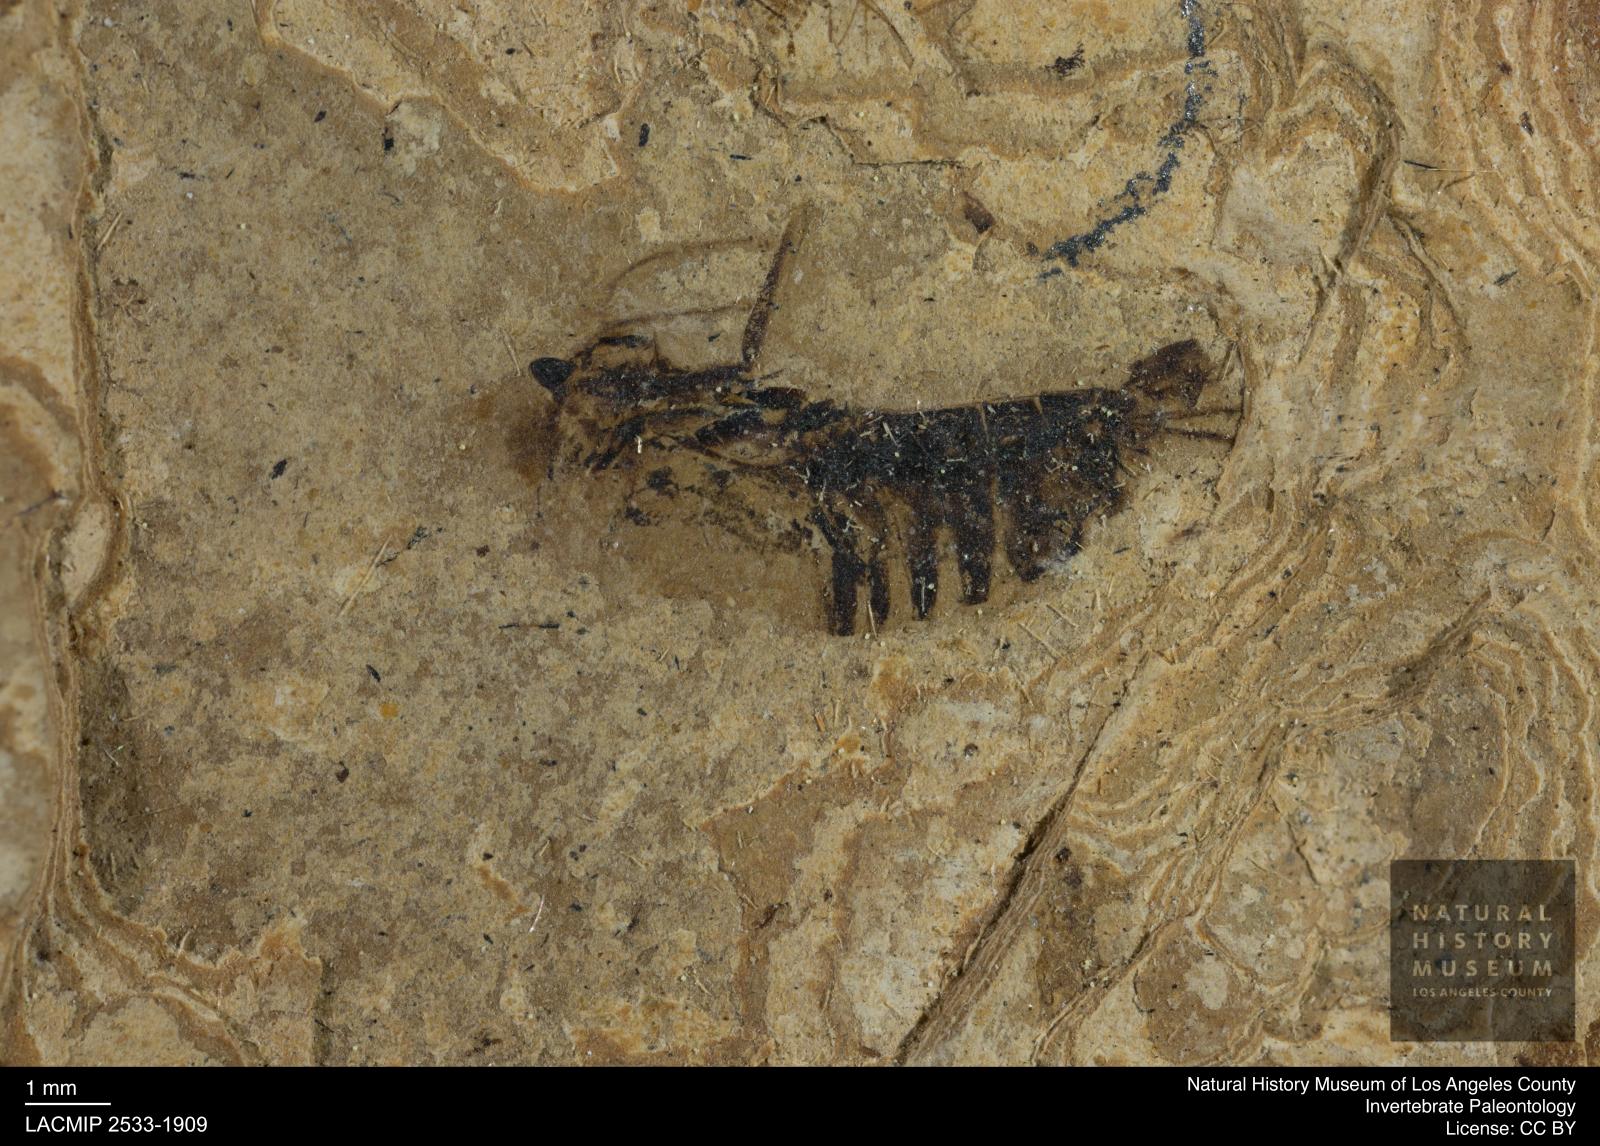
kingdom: Animalia
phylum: Arthropoda
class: Insecta
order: Hemiptera
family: Notonectidae
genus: Anisops
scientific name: Anisops Notonecta deichmuelleri
